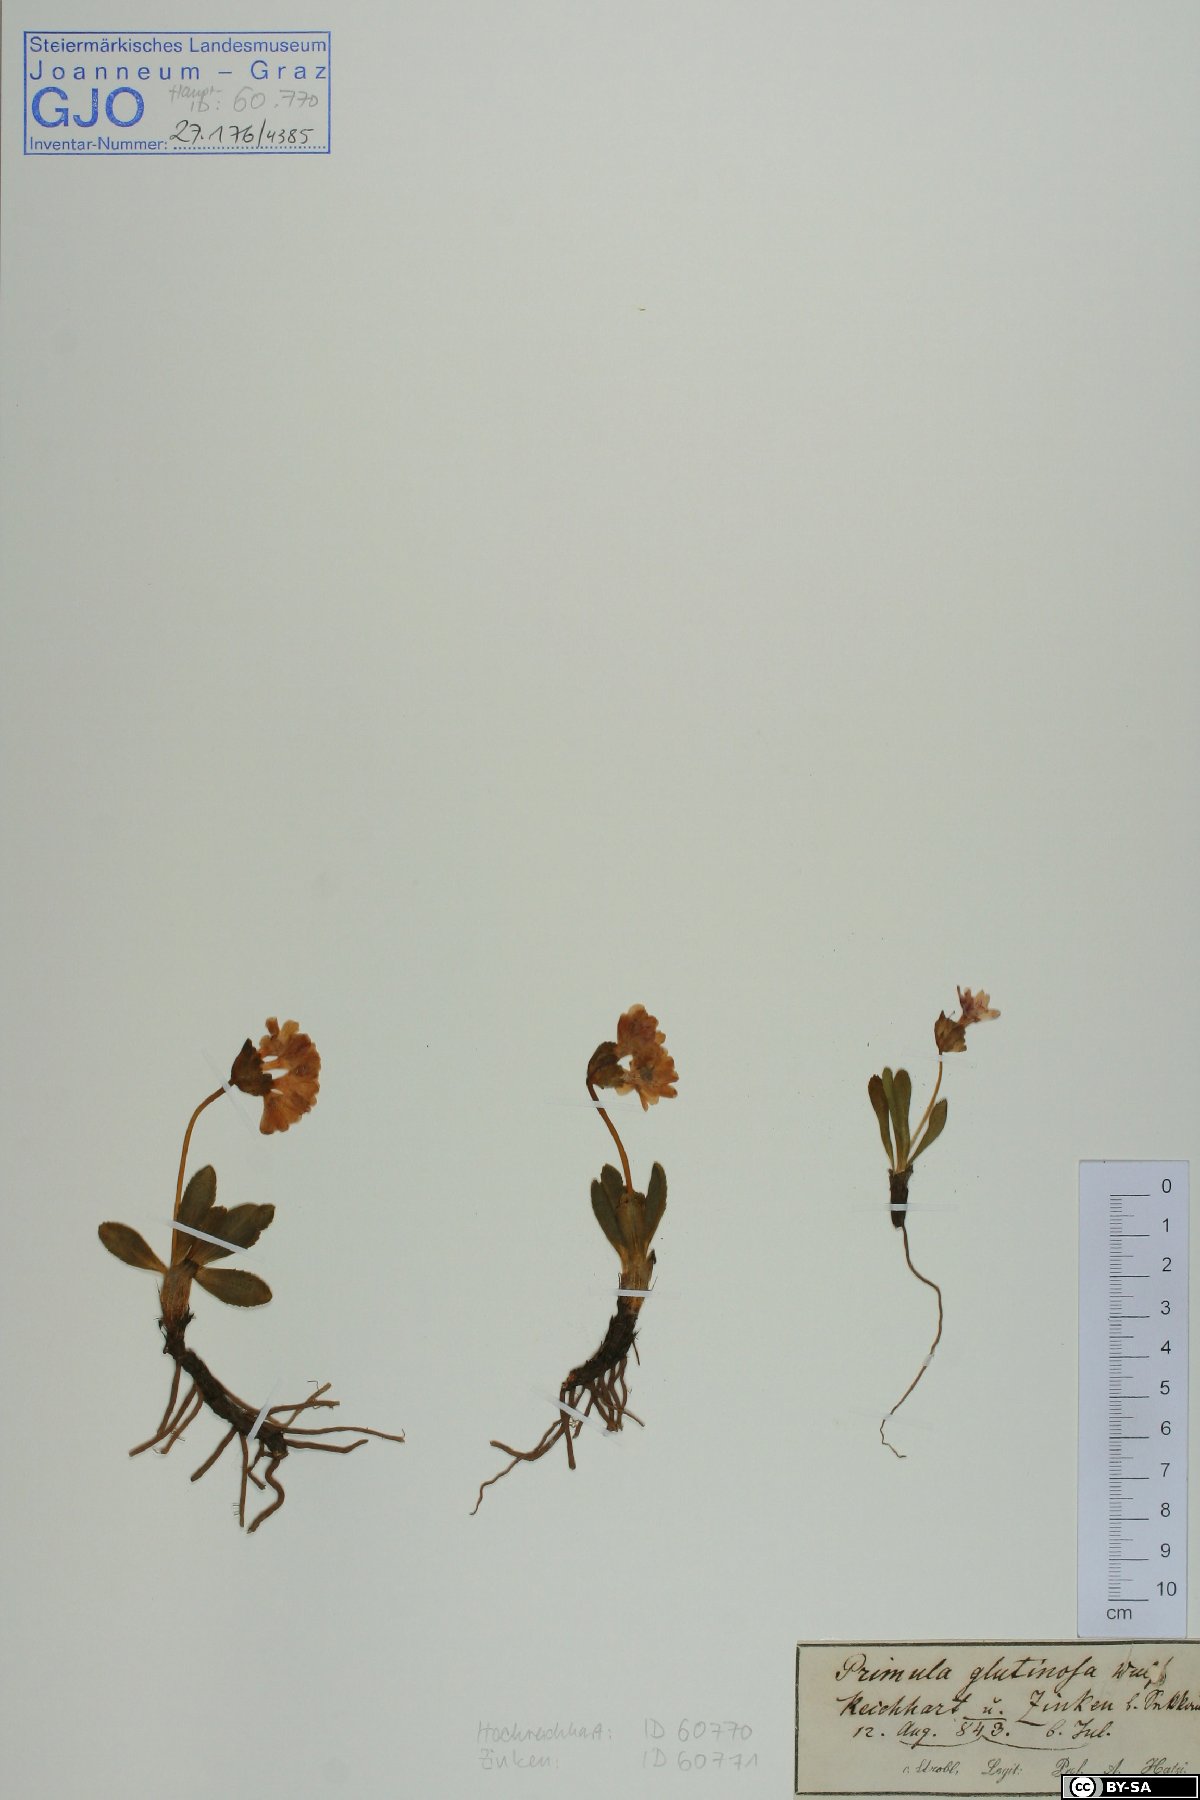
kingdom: Plantae
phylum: Tracheophyta
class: Magnoliopsida
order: Ericales
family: Primulaceae
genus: Primula
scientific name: Primula glutinosa
